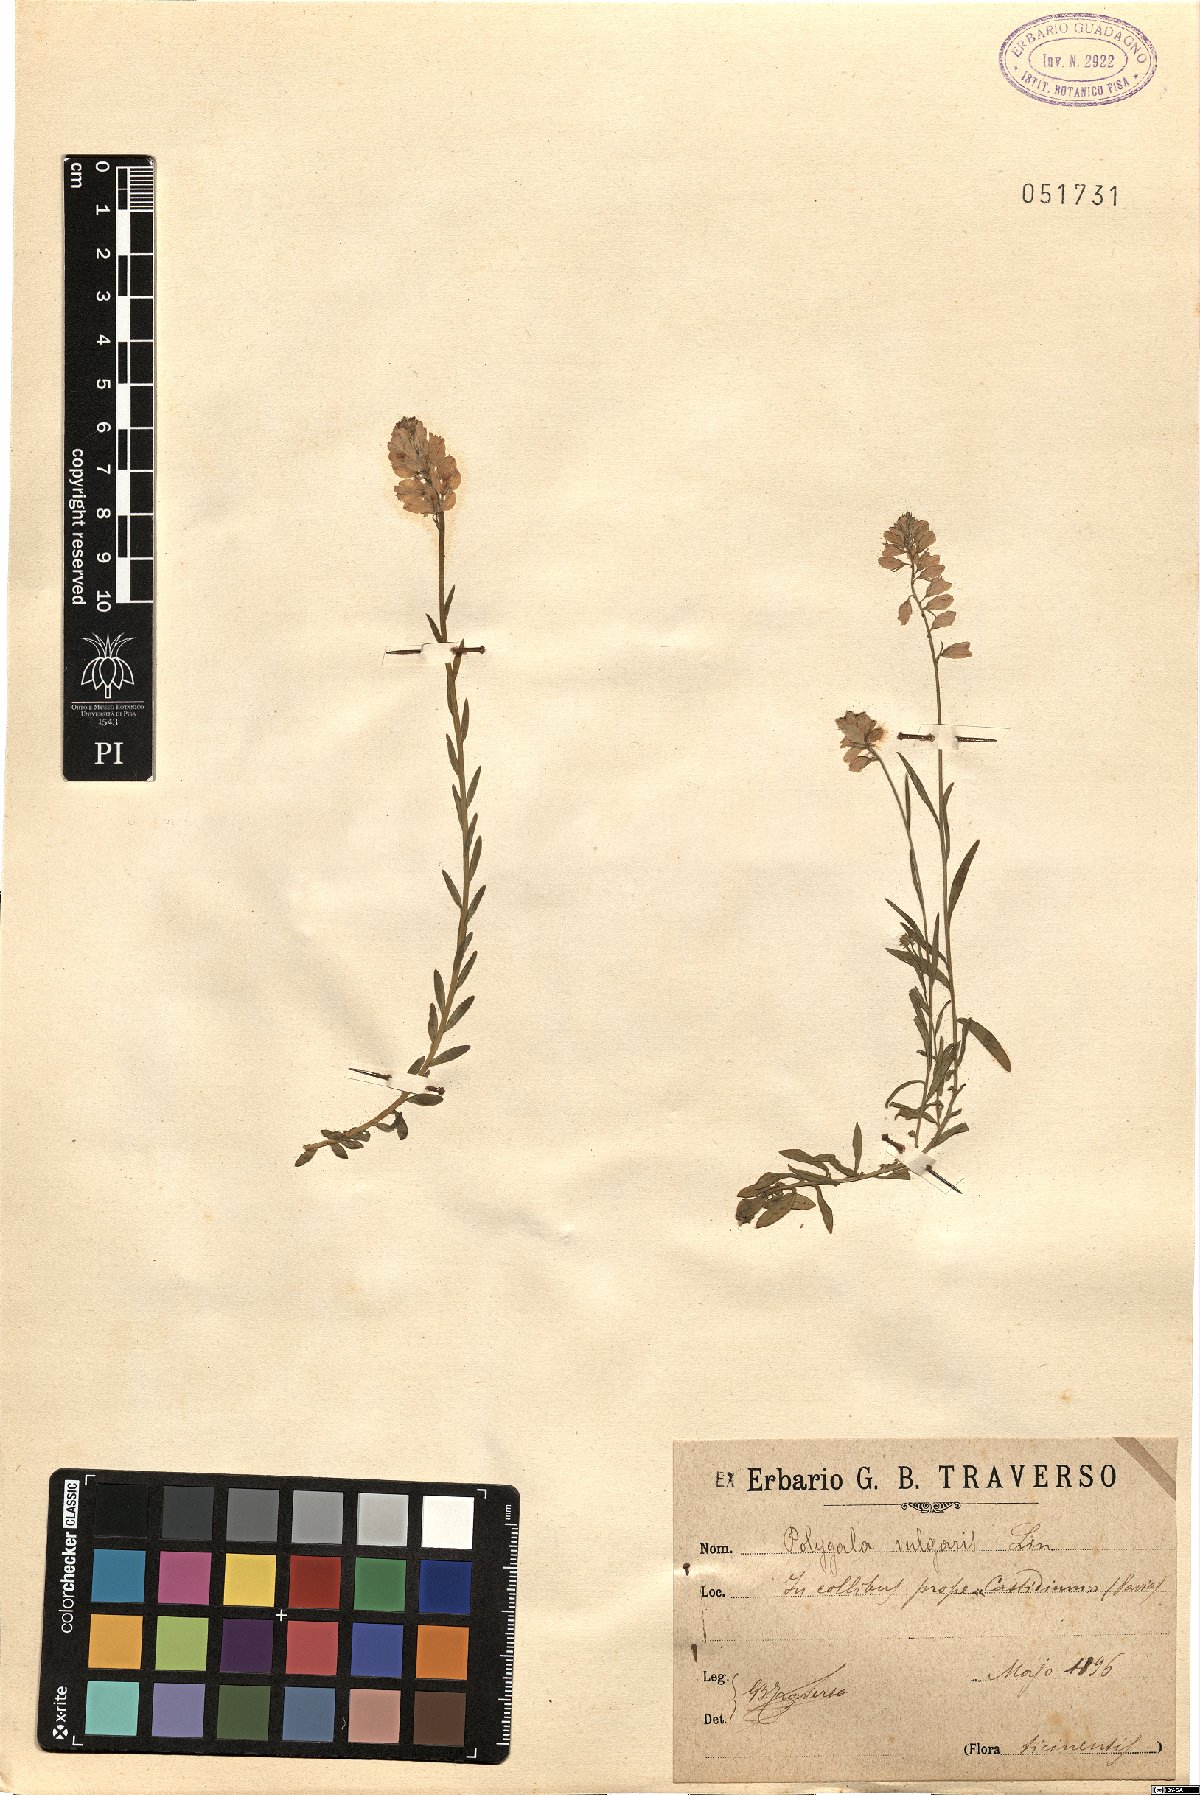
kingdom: Plantae
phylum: Tracheophyta
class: Magnoliopsida
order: Fabales
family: Polygalaceae
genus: Polygala
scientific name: Polygala vulgaris
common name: Common milkwort
